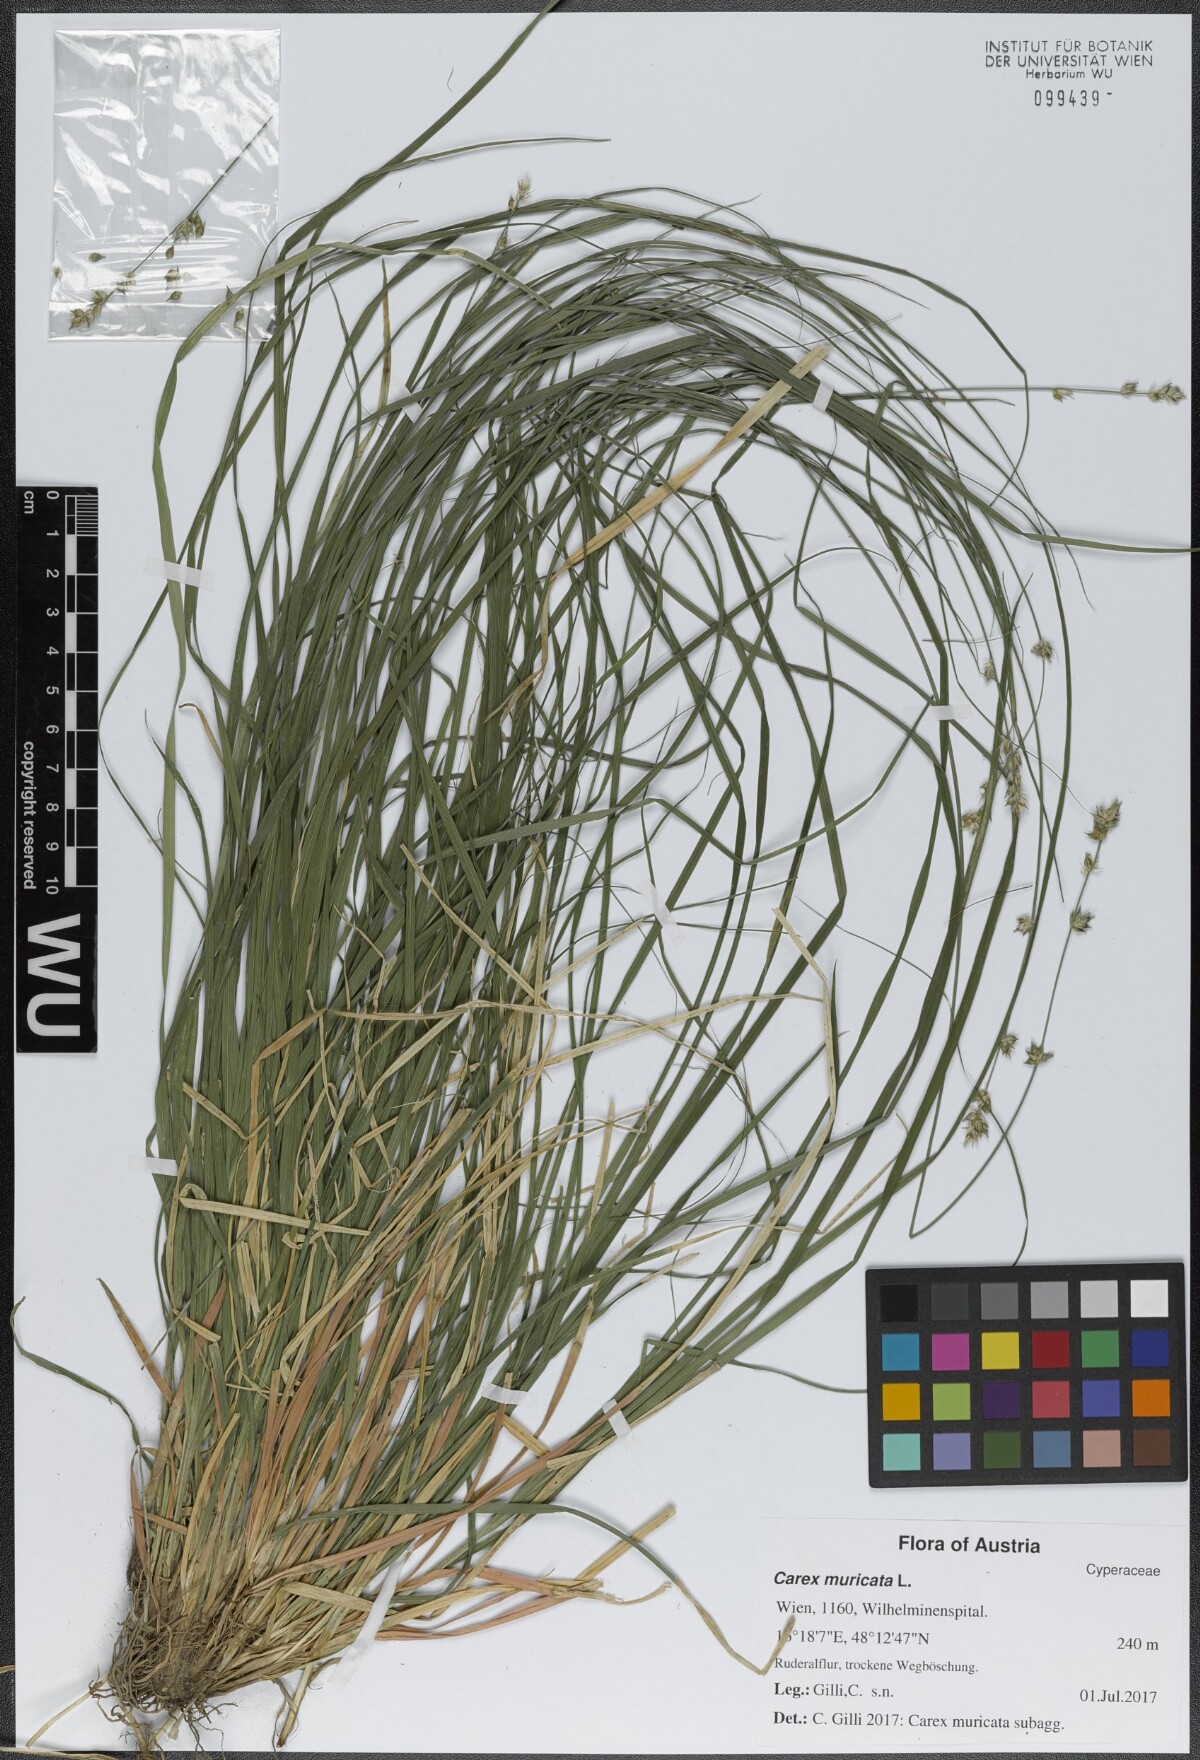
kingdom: Plantae
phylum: Tracheophyta
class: Liliopsida
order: Poales
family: Cyperaceae
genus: Carex
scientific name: Carex muricata
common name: Rough sedge
